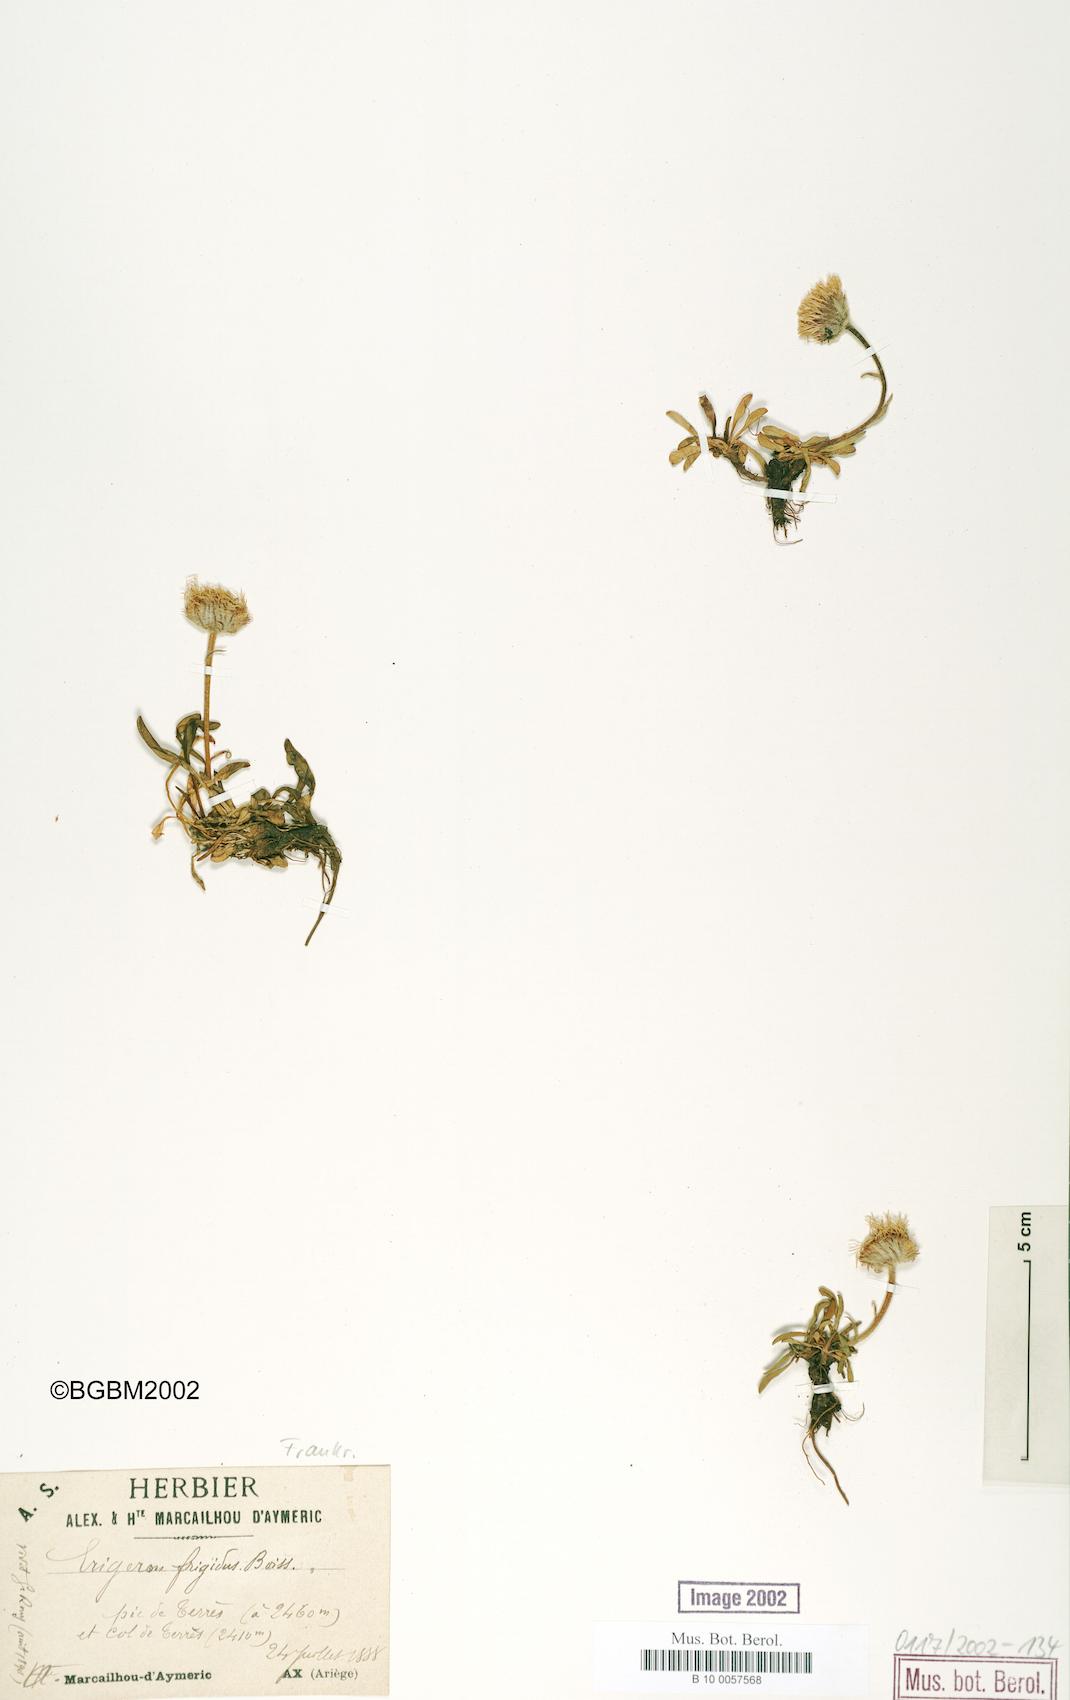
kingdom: Plantae
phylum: Tracheophyta
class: Magnoliopsida
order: Asterales
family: Asteraceae
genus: Erigeron
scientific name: Erigeron aragonensis
